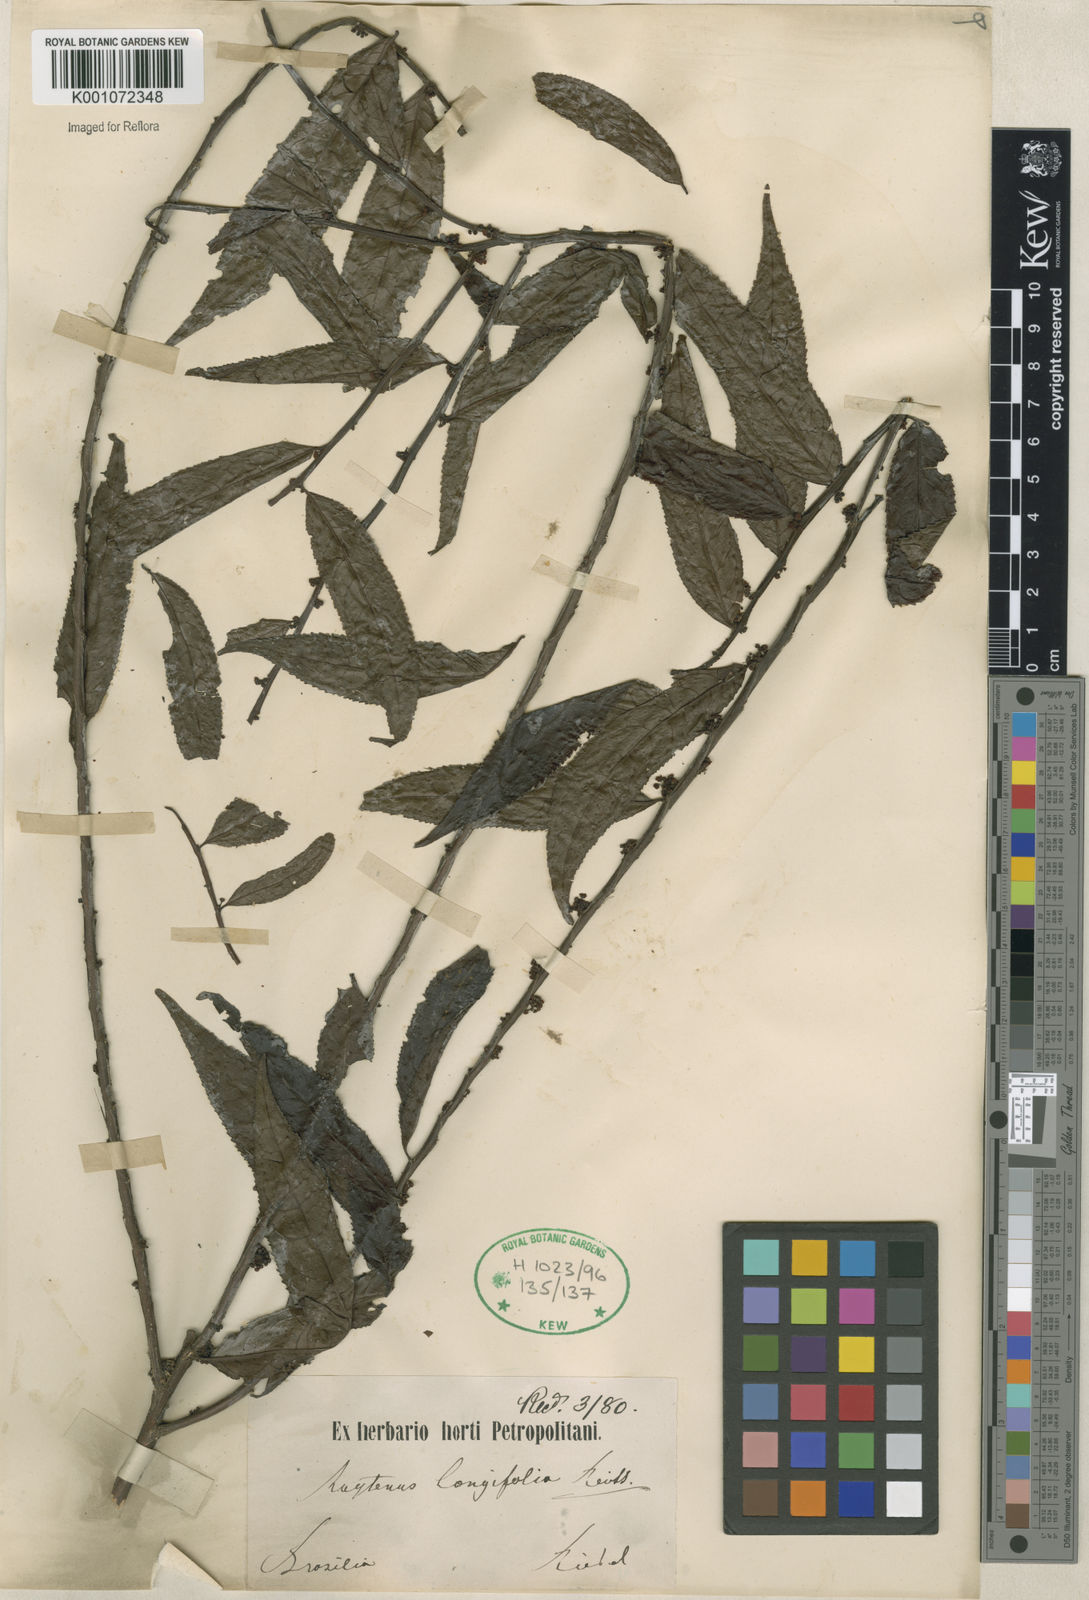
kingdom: Plantae
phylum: Tracheophyta
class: Magnoliopsida
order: Celastrales
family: Celastraceae
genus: Monteverdia
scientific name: Monteverdia longifolia
